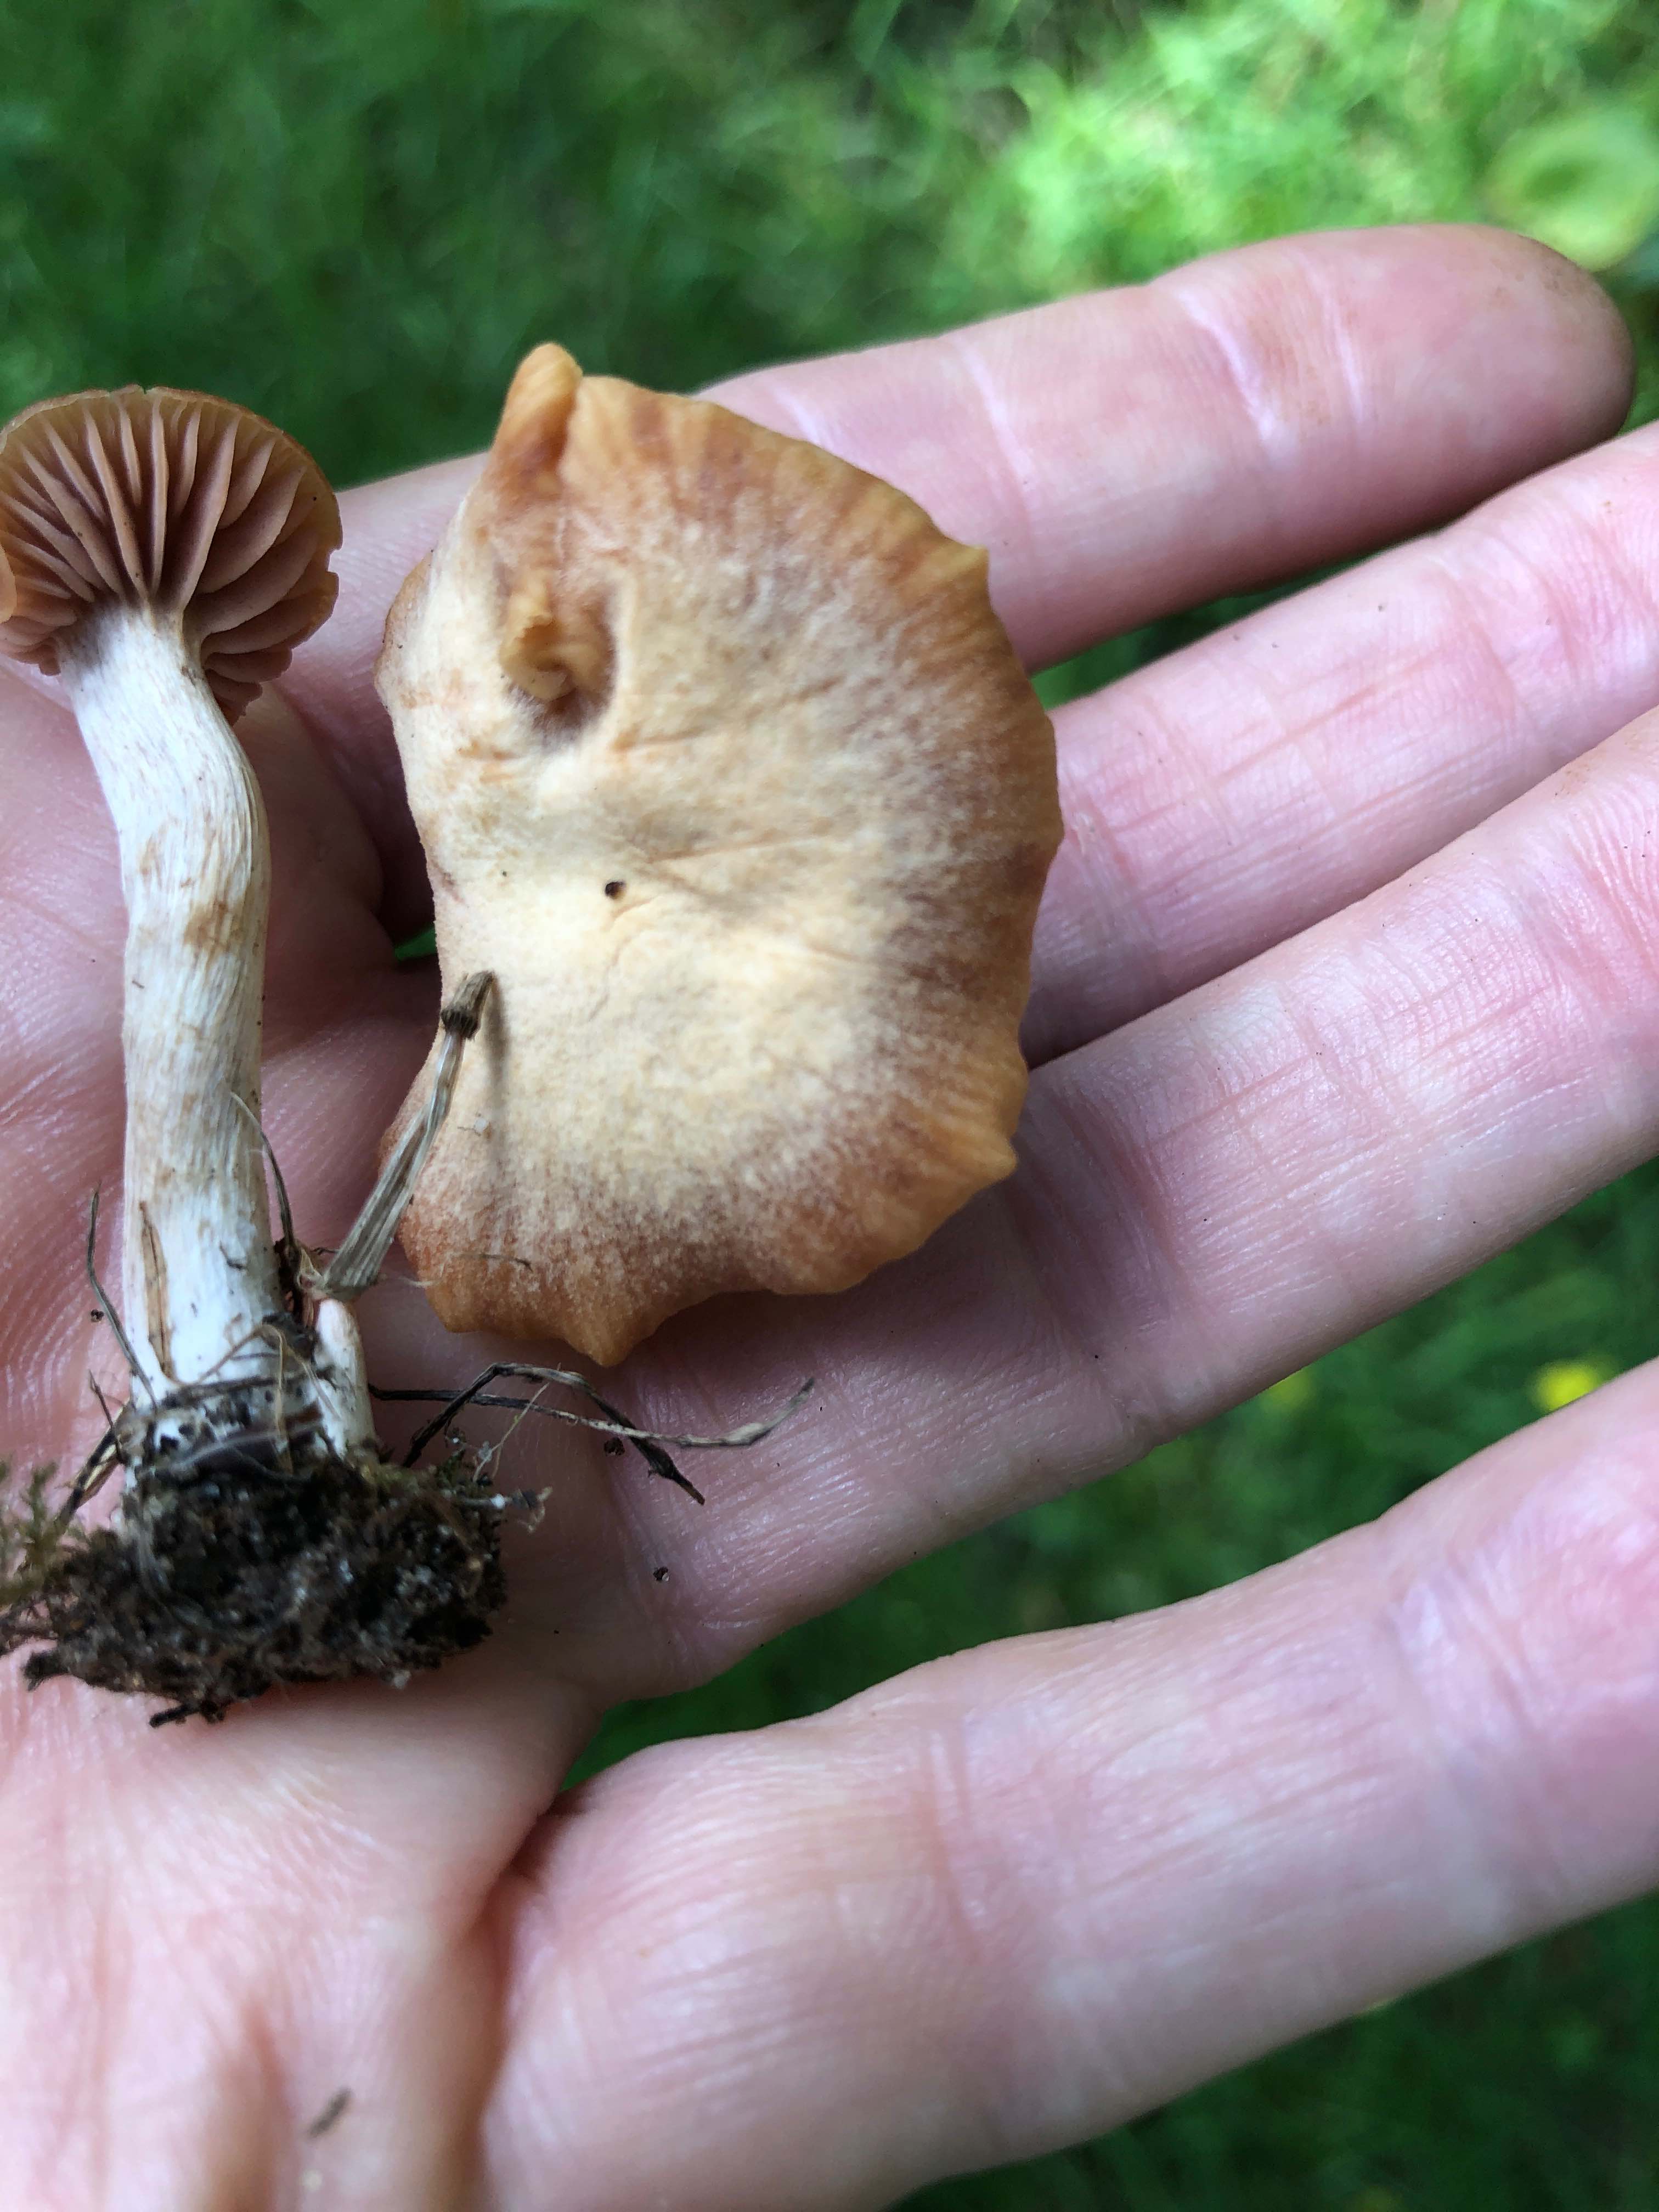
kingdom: Fungi
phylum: Basidiomycota
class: Agaricomycetes
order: Agaricales
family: Hydnangiaceae
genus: Laccaria
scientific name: Laccaria laccata
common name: rød ametysthat
